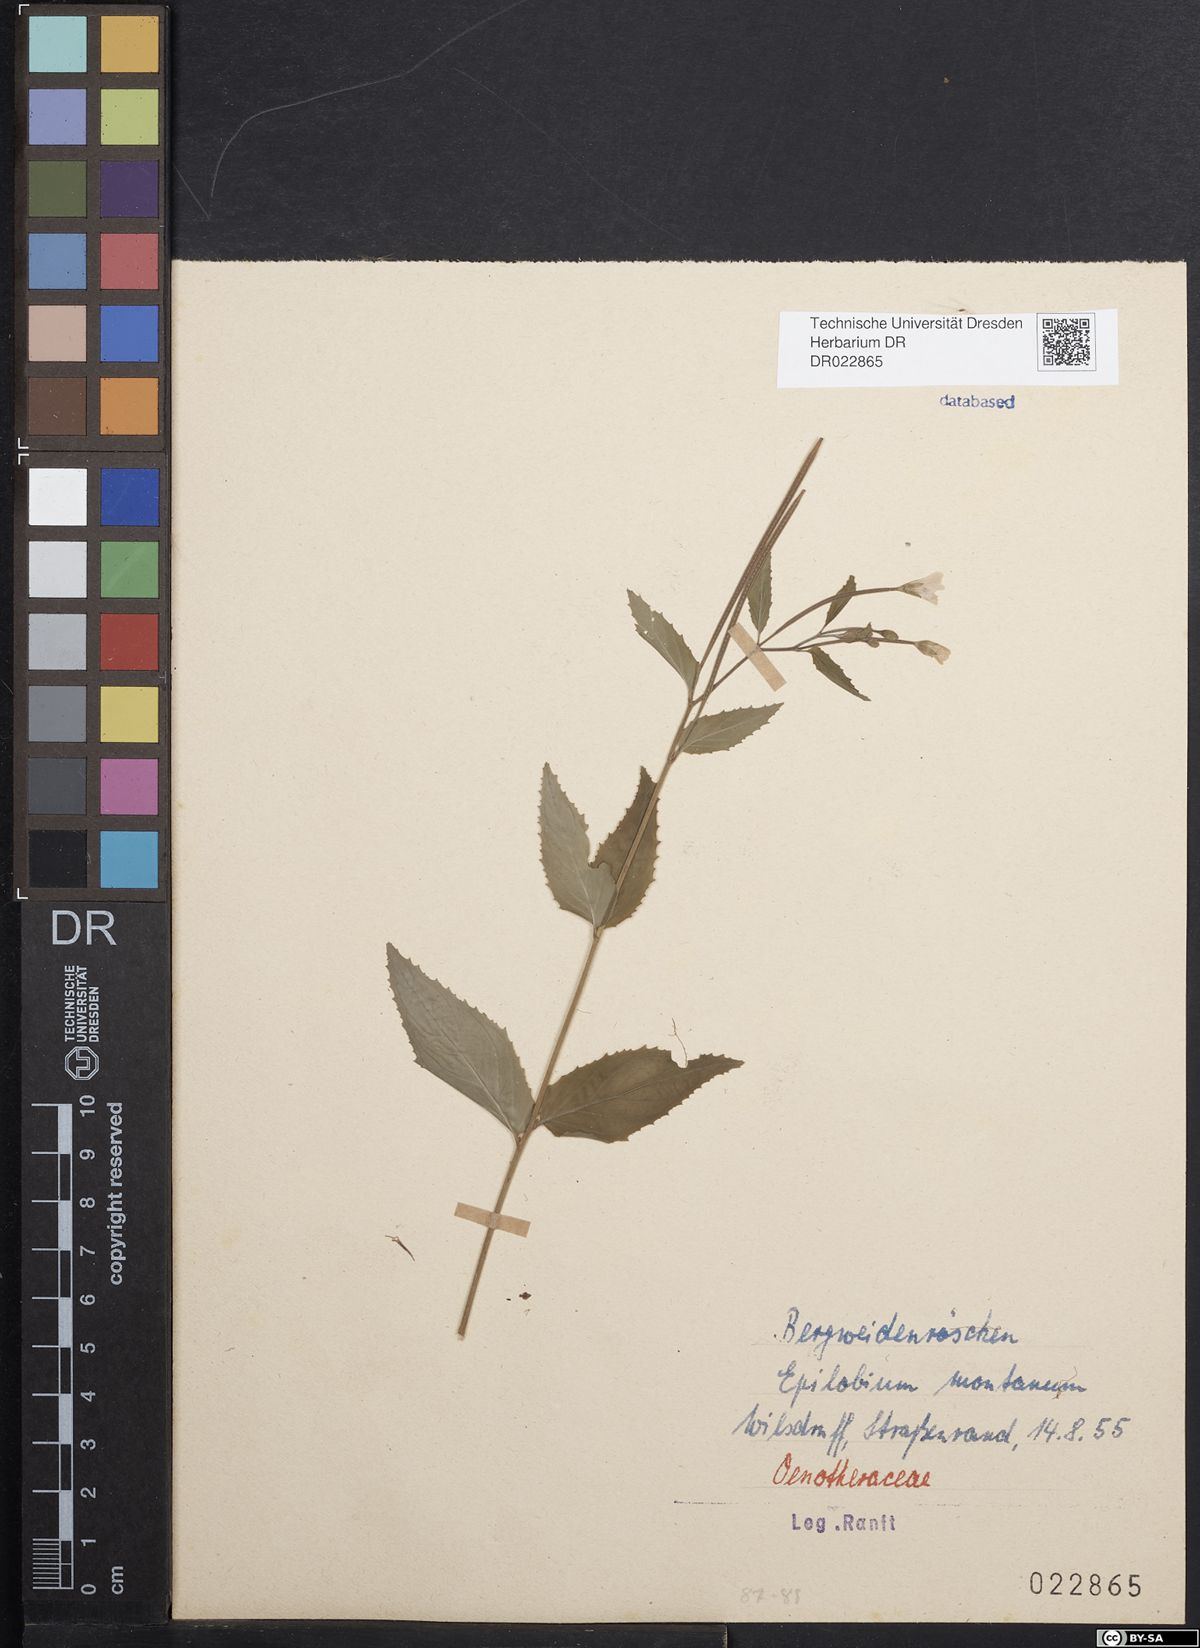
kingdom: Plantae
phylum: Tracheophyta
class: Magnoliopsida
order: Myrtales
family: Onagraceae
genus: Epilobium
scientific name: Epilobium montanum
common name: Broad-leaved willowherb
